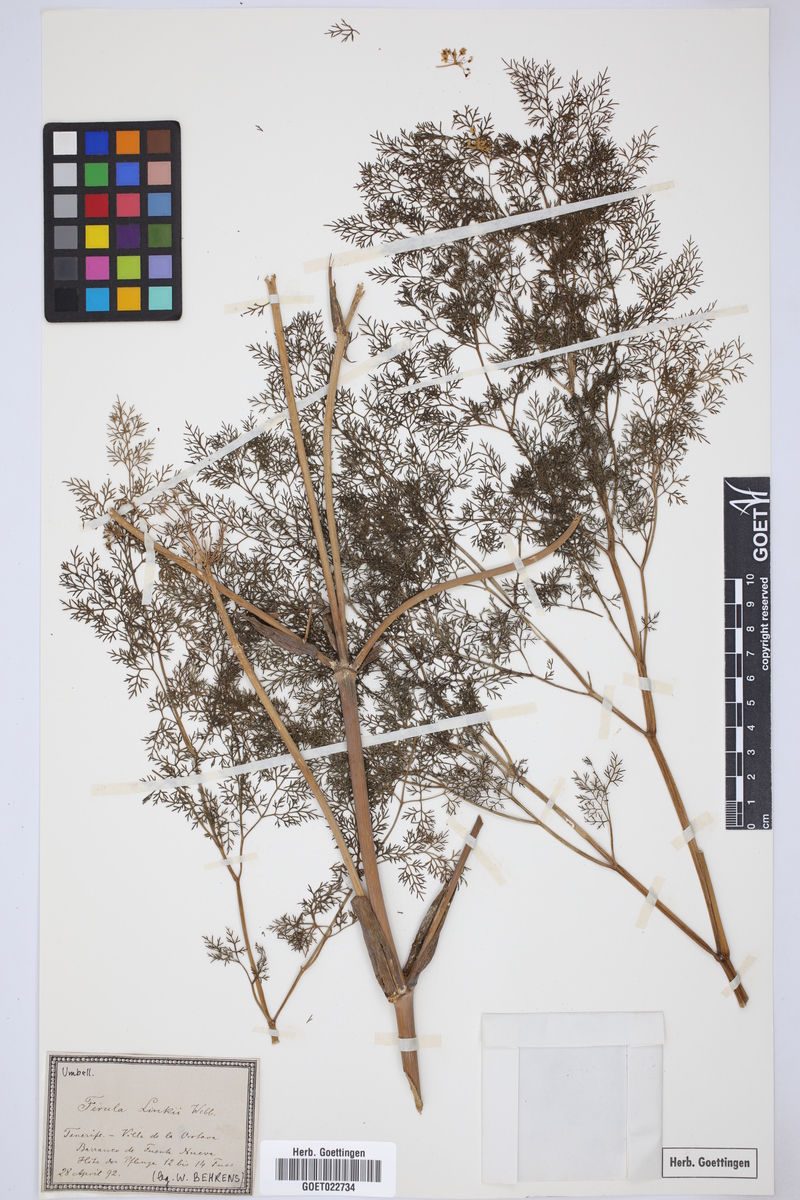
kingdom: Plantae
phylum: Tracheophyta
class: Magnoliopsida
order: Apiales
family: Apiaceae
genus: Ferula
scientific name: Ferula communis
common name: Giant fennel
